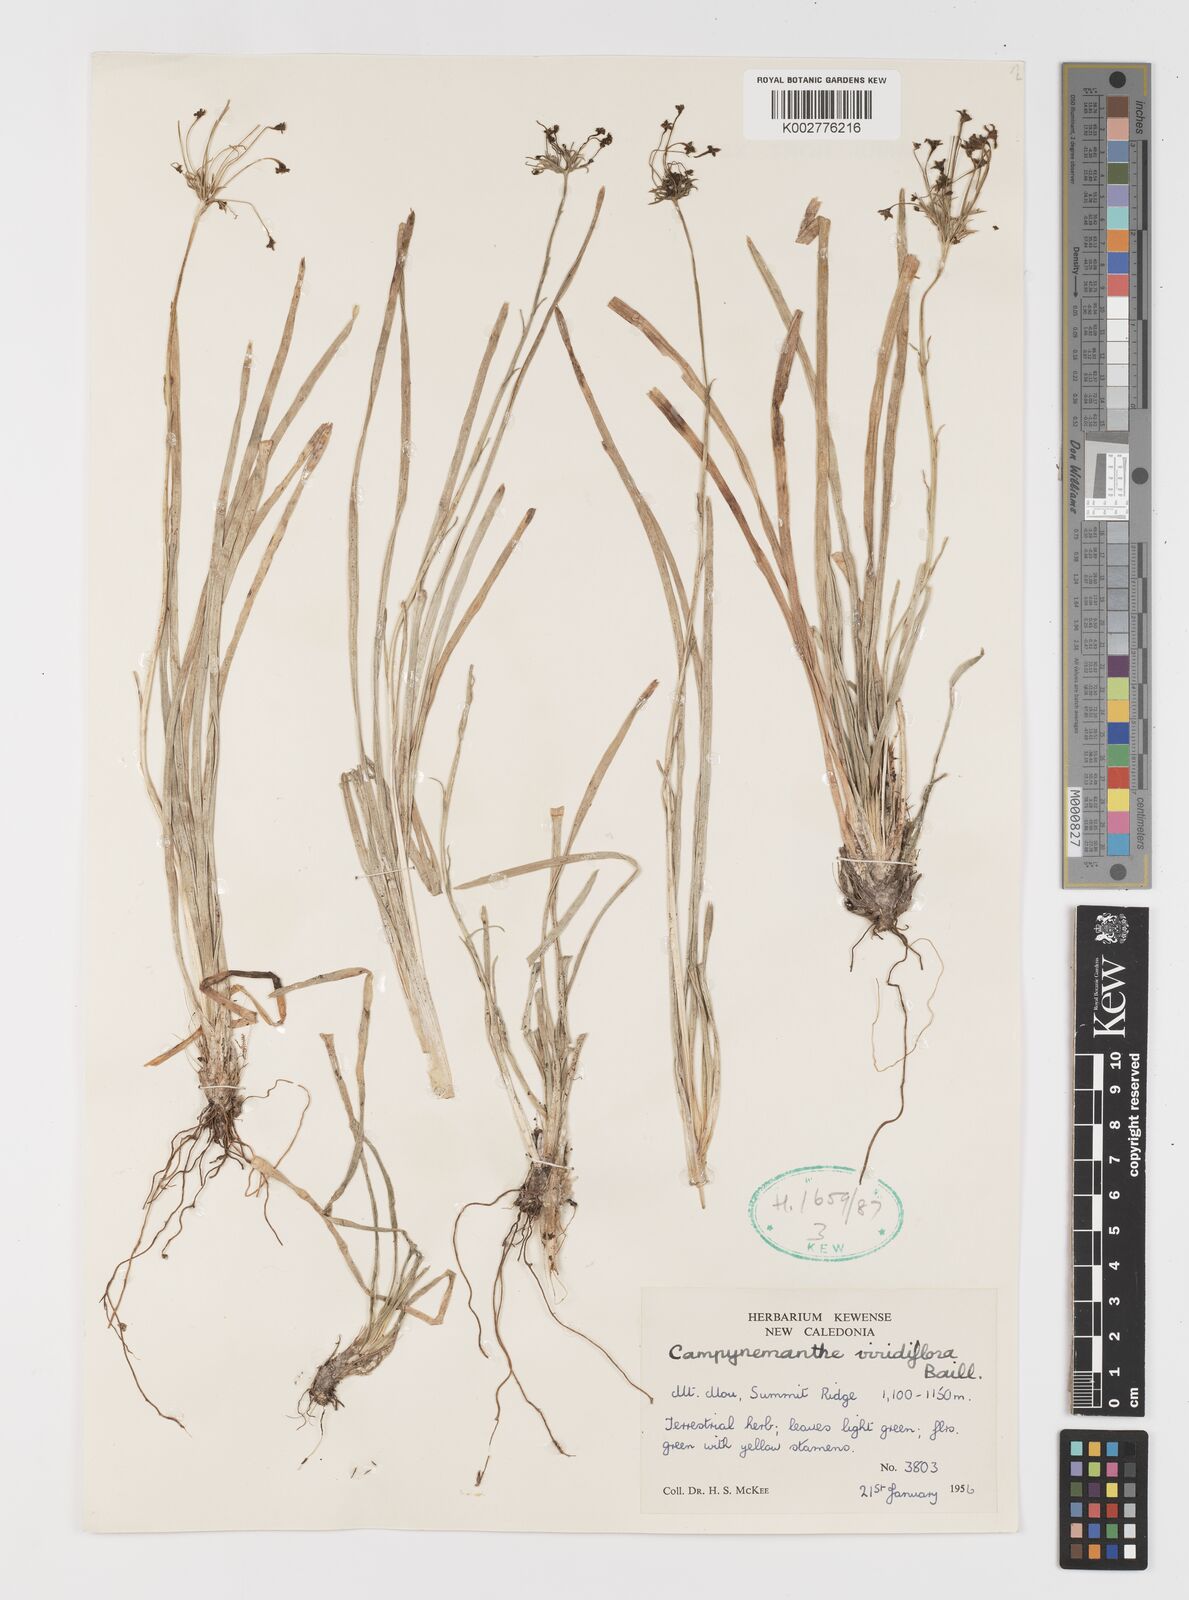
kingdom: Plantae
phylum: Tracheophyta
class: Liliopsida
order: Liliales
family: Campynemataceae
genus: Campynemanthe
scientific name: Campynemanthe viridiflora
